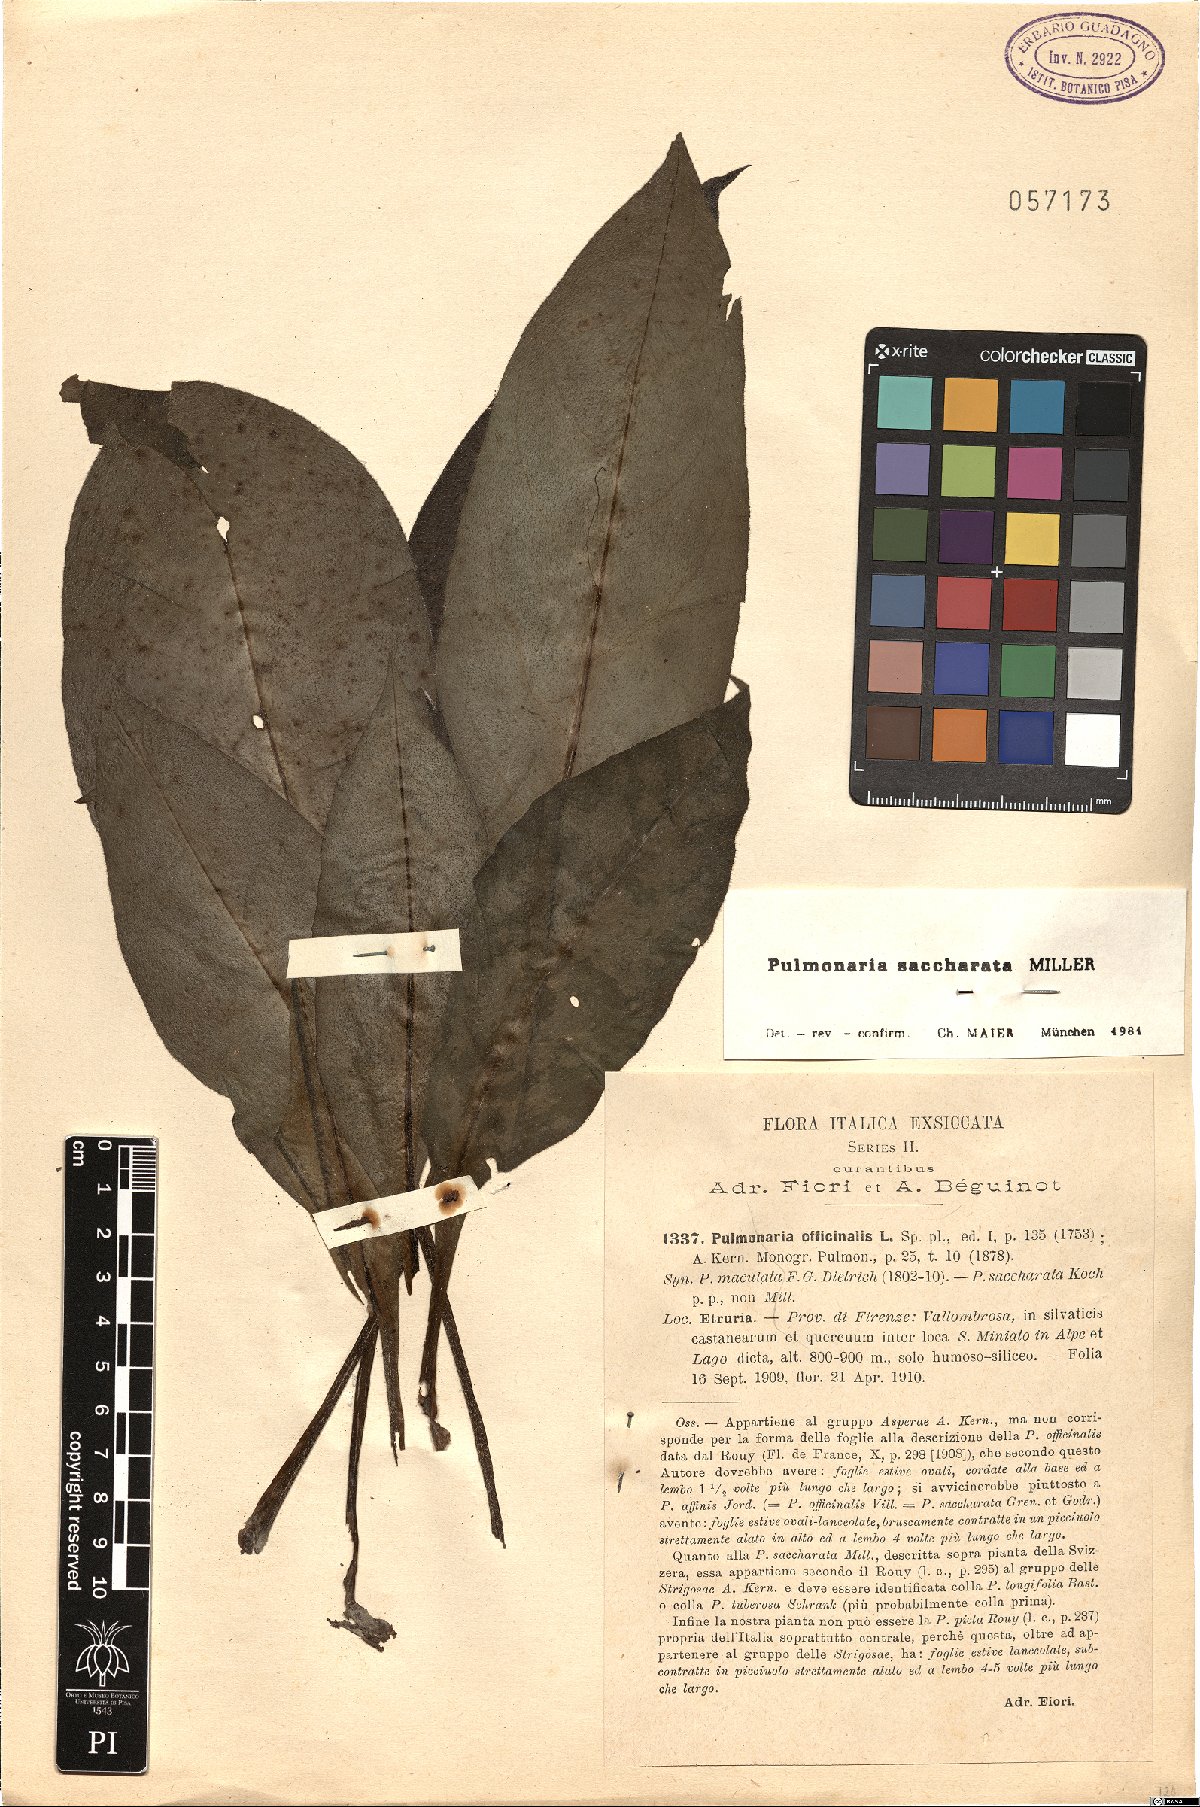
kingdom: Plantae
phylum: Tracheophyta
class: Magnoliopsida
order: Boraginales
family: Boraginaceae
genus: Pulmonaria
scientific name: Pulmonaria saccharata
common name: Bethlehem lungwort
